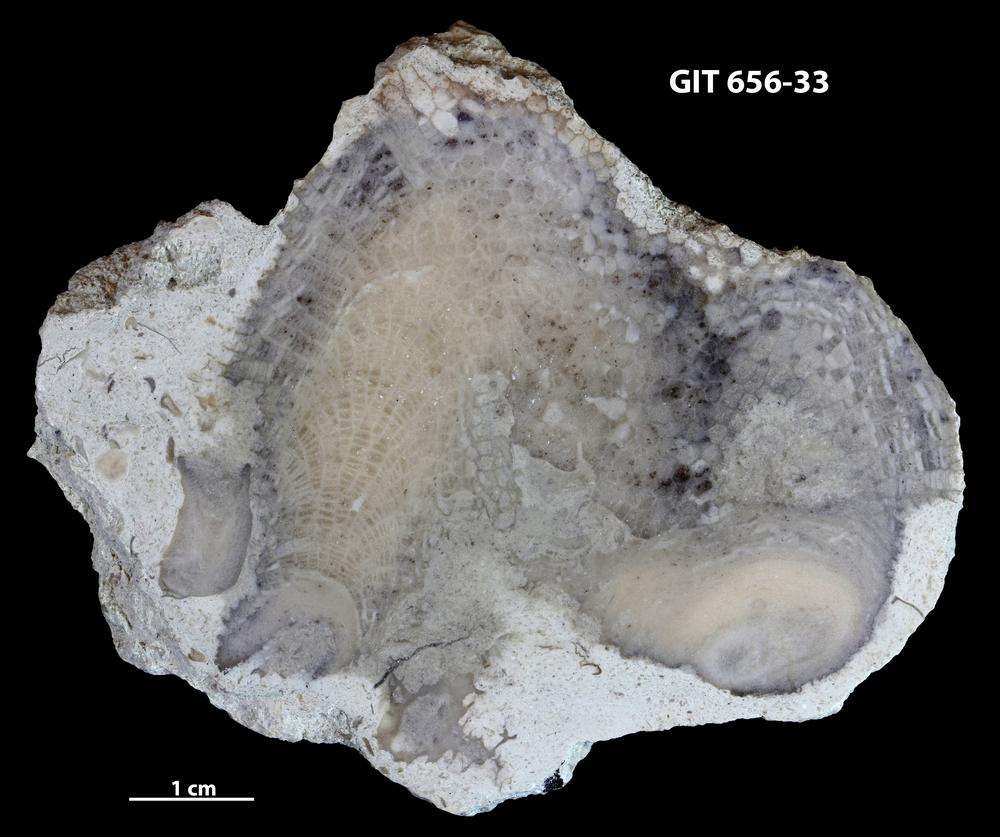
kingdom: Animalia
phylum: Cnidaria
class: Anthozoa
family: Favositidae
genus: Favosites
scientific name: Favosites
